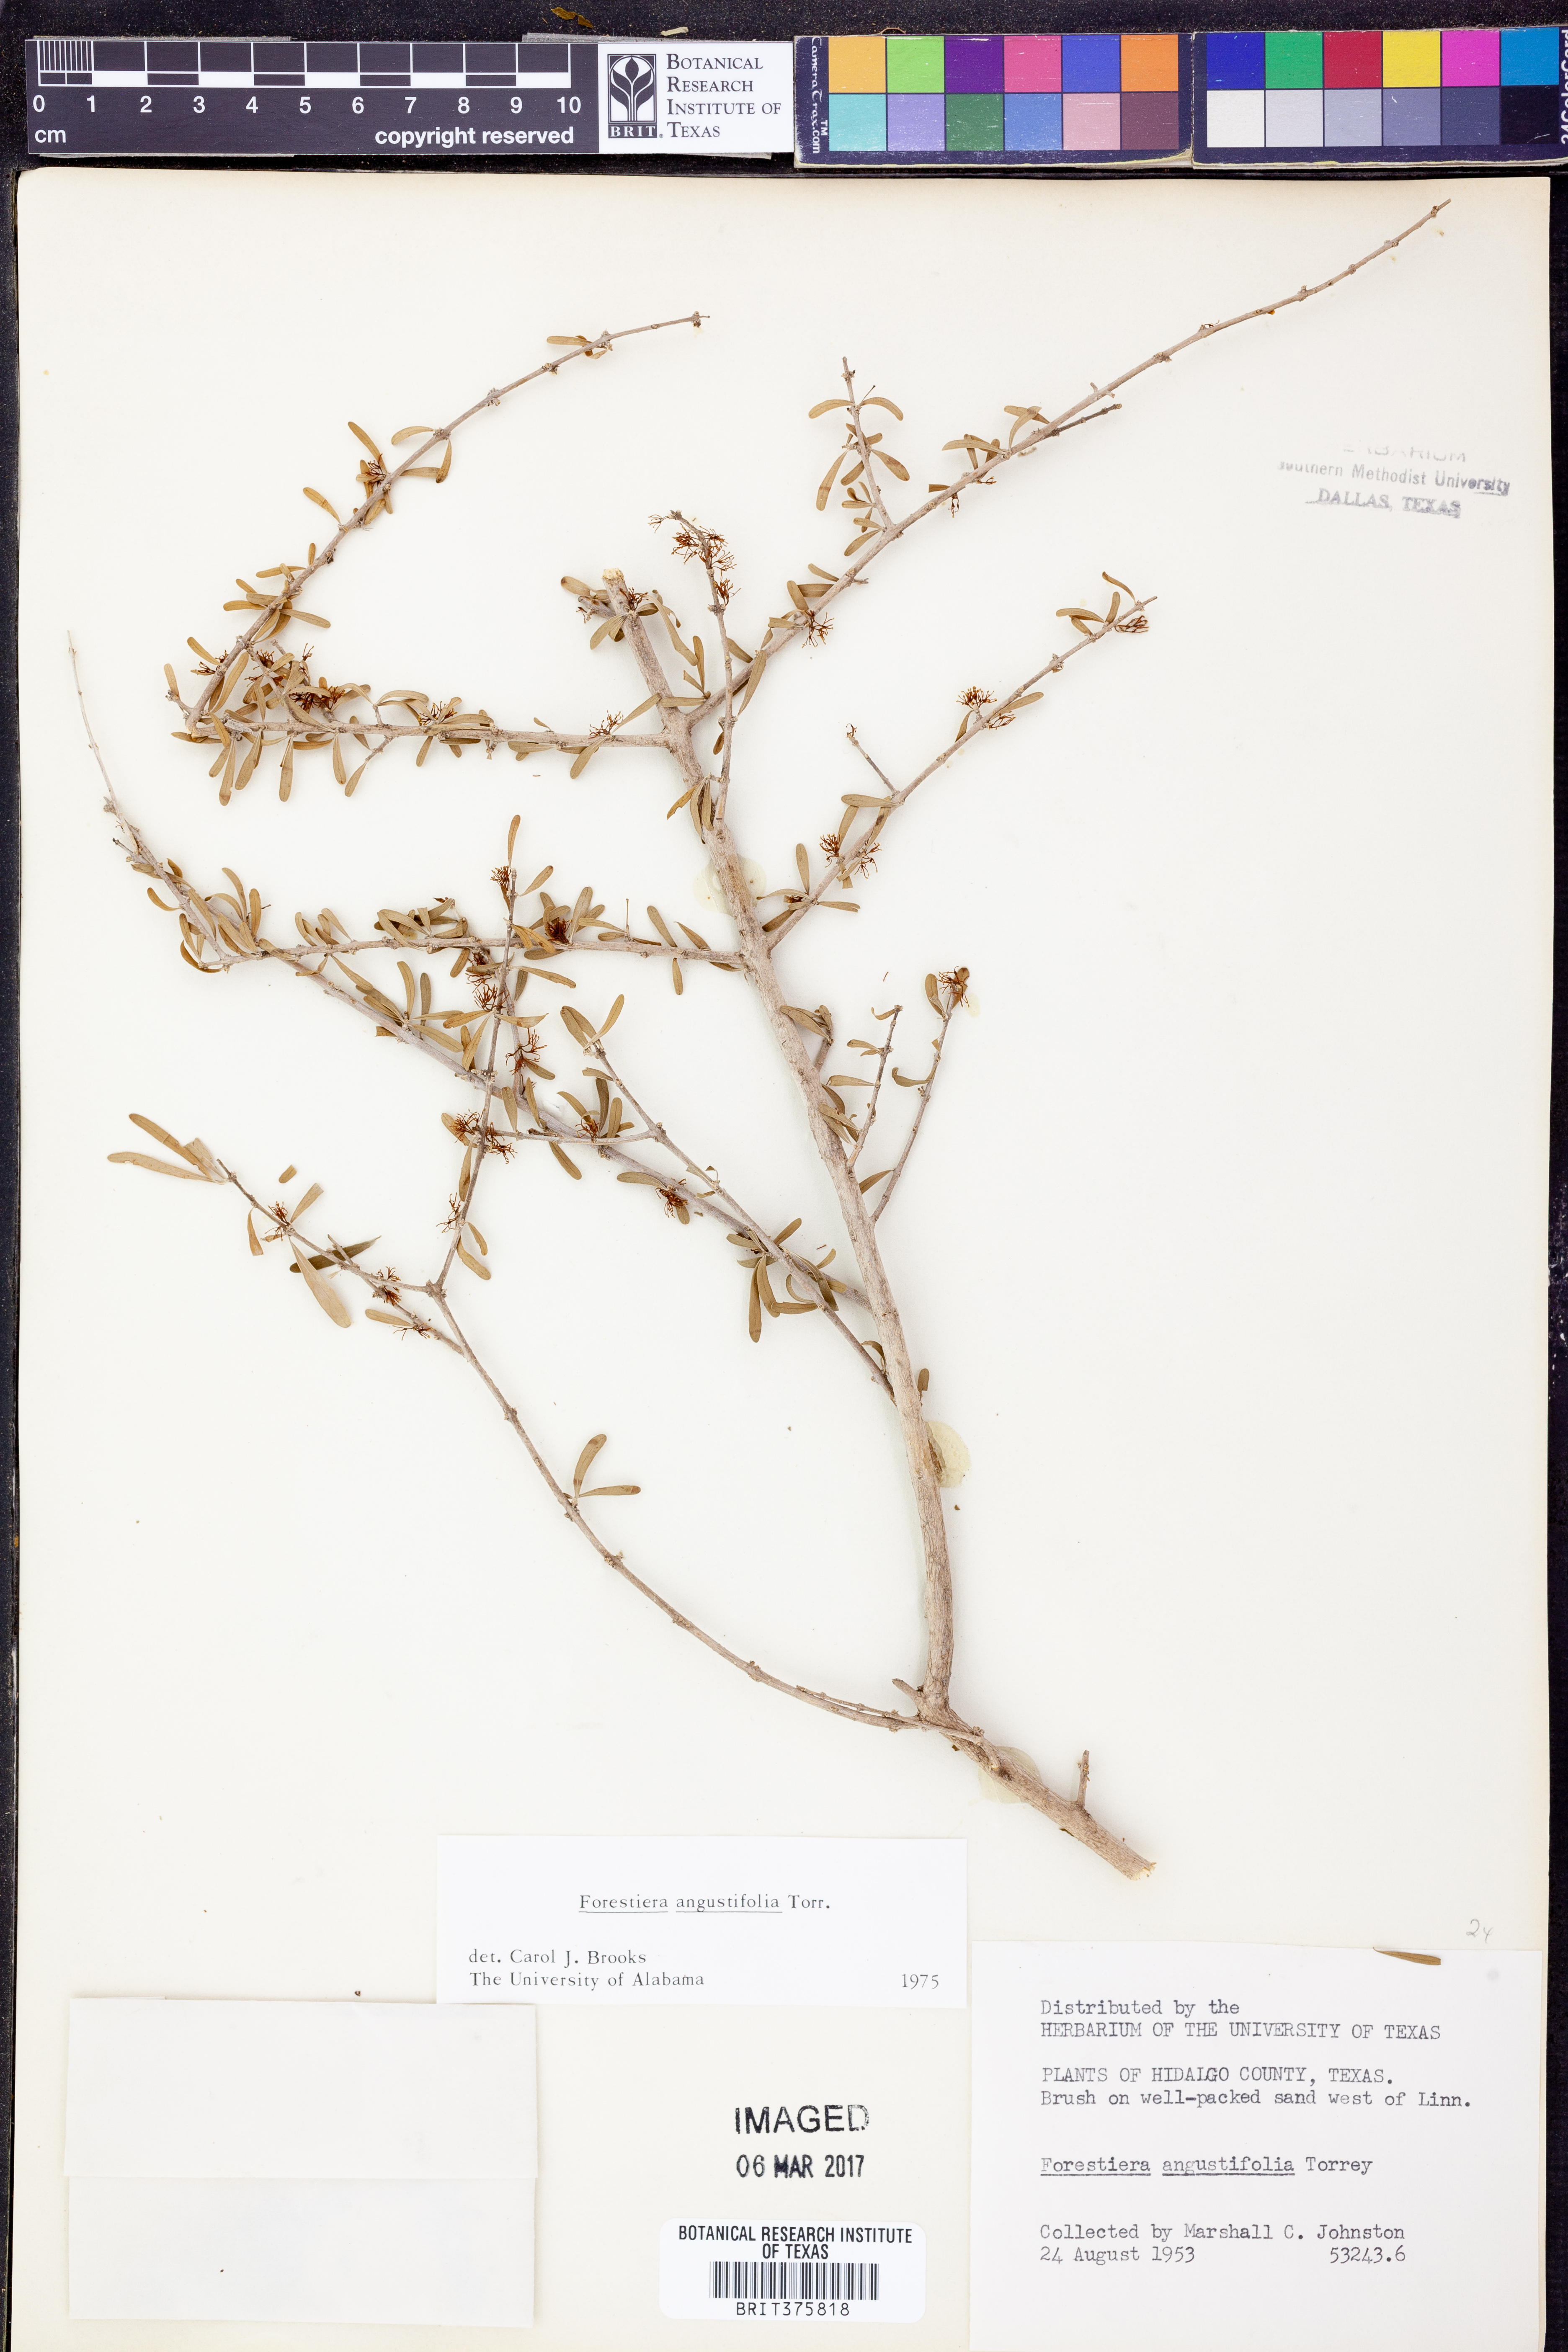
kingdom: Plantae
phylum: Tracheophyta
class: Magnoliopsida
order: Lamiales
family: Oleaceae
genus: Forestiera
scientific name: Forestiera angustifolia
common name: Elbowbush
